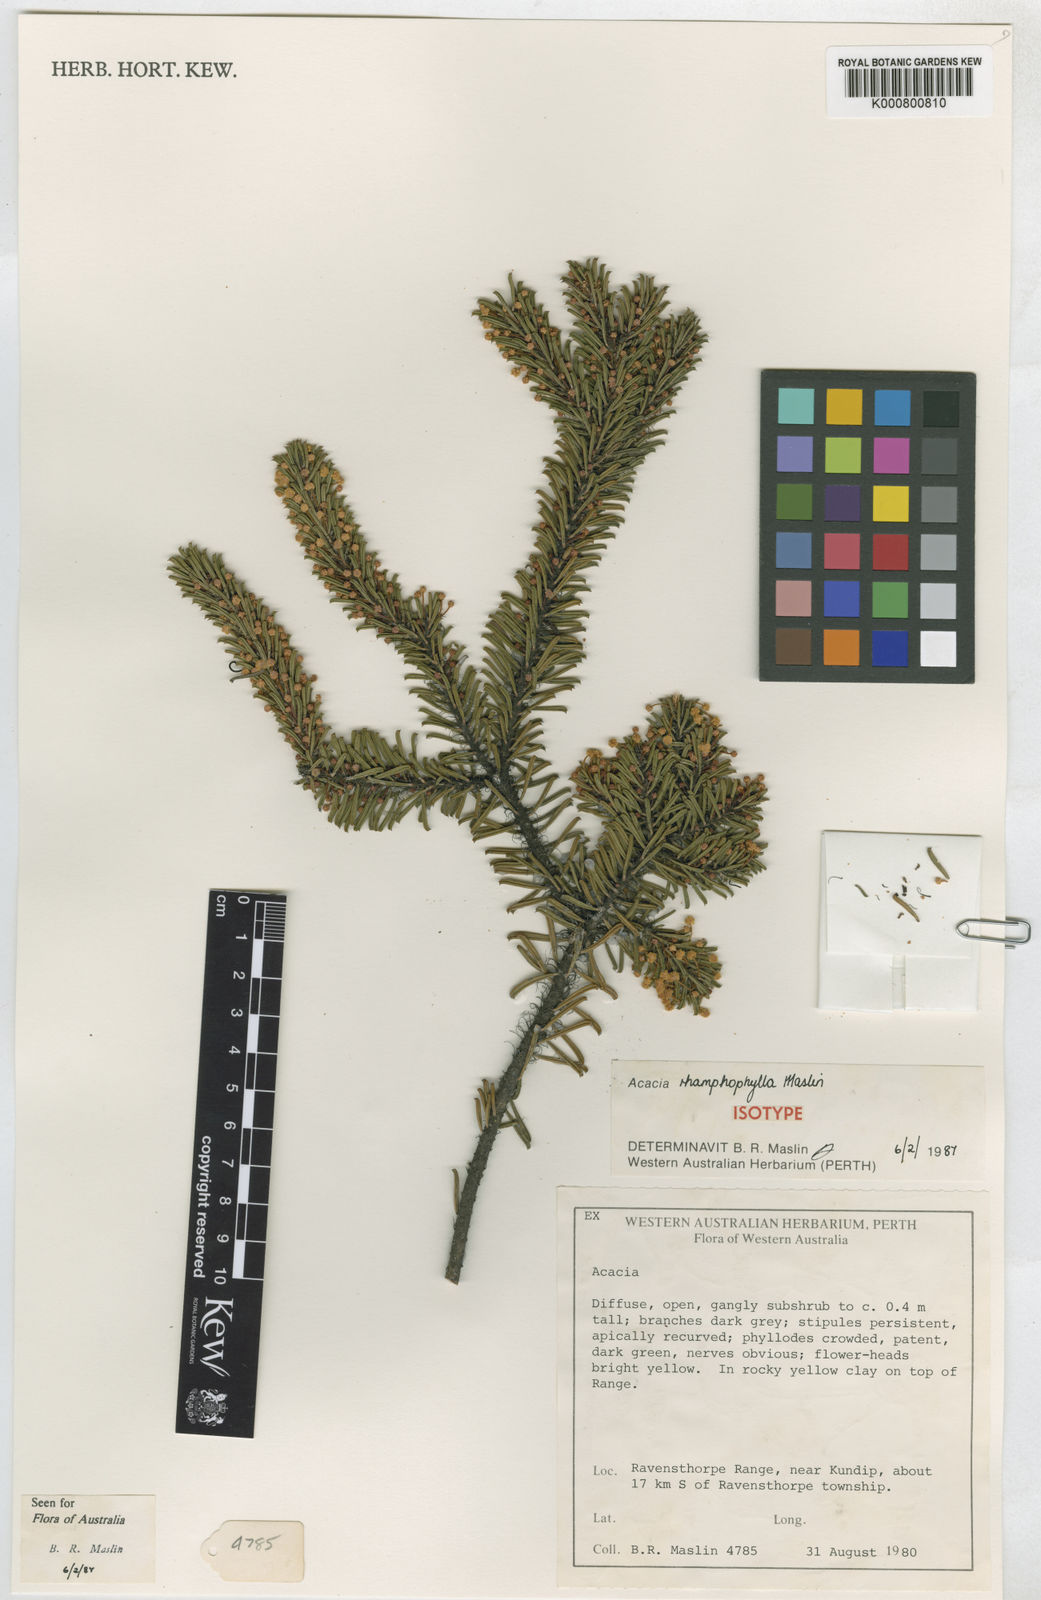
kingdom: Plantae
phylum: Tracheophyta
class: Magnoliopsida
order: Fabales
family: Fabaceae
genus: Acacia
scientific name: Acacia rhamphophylla
